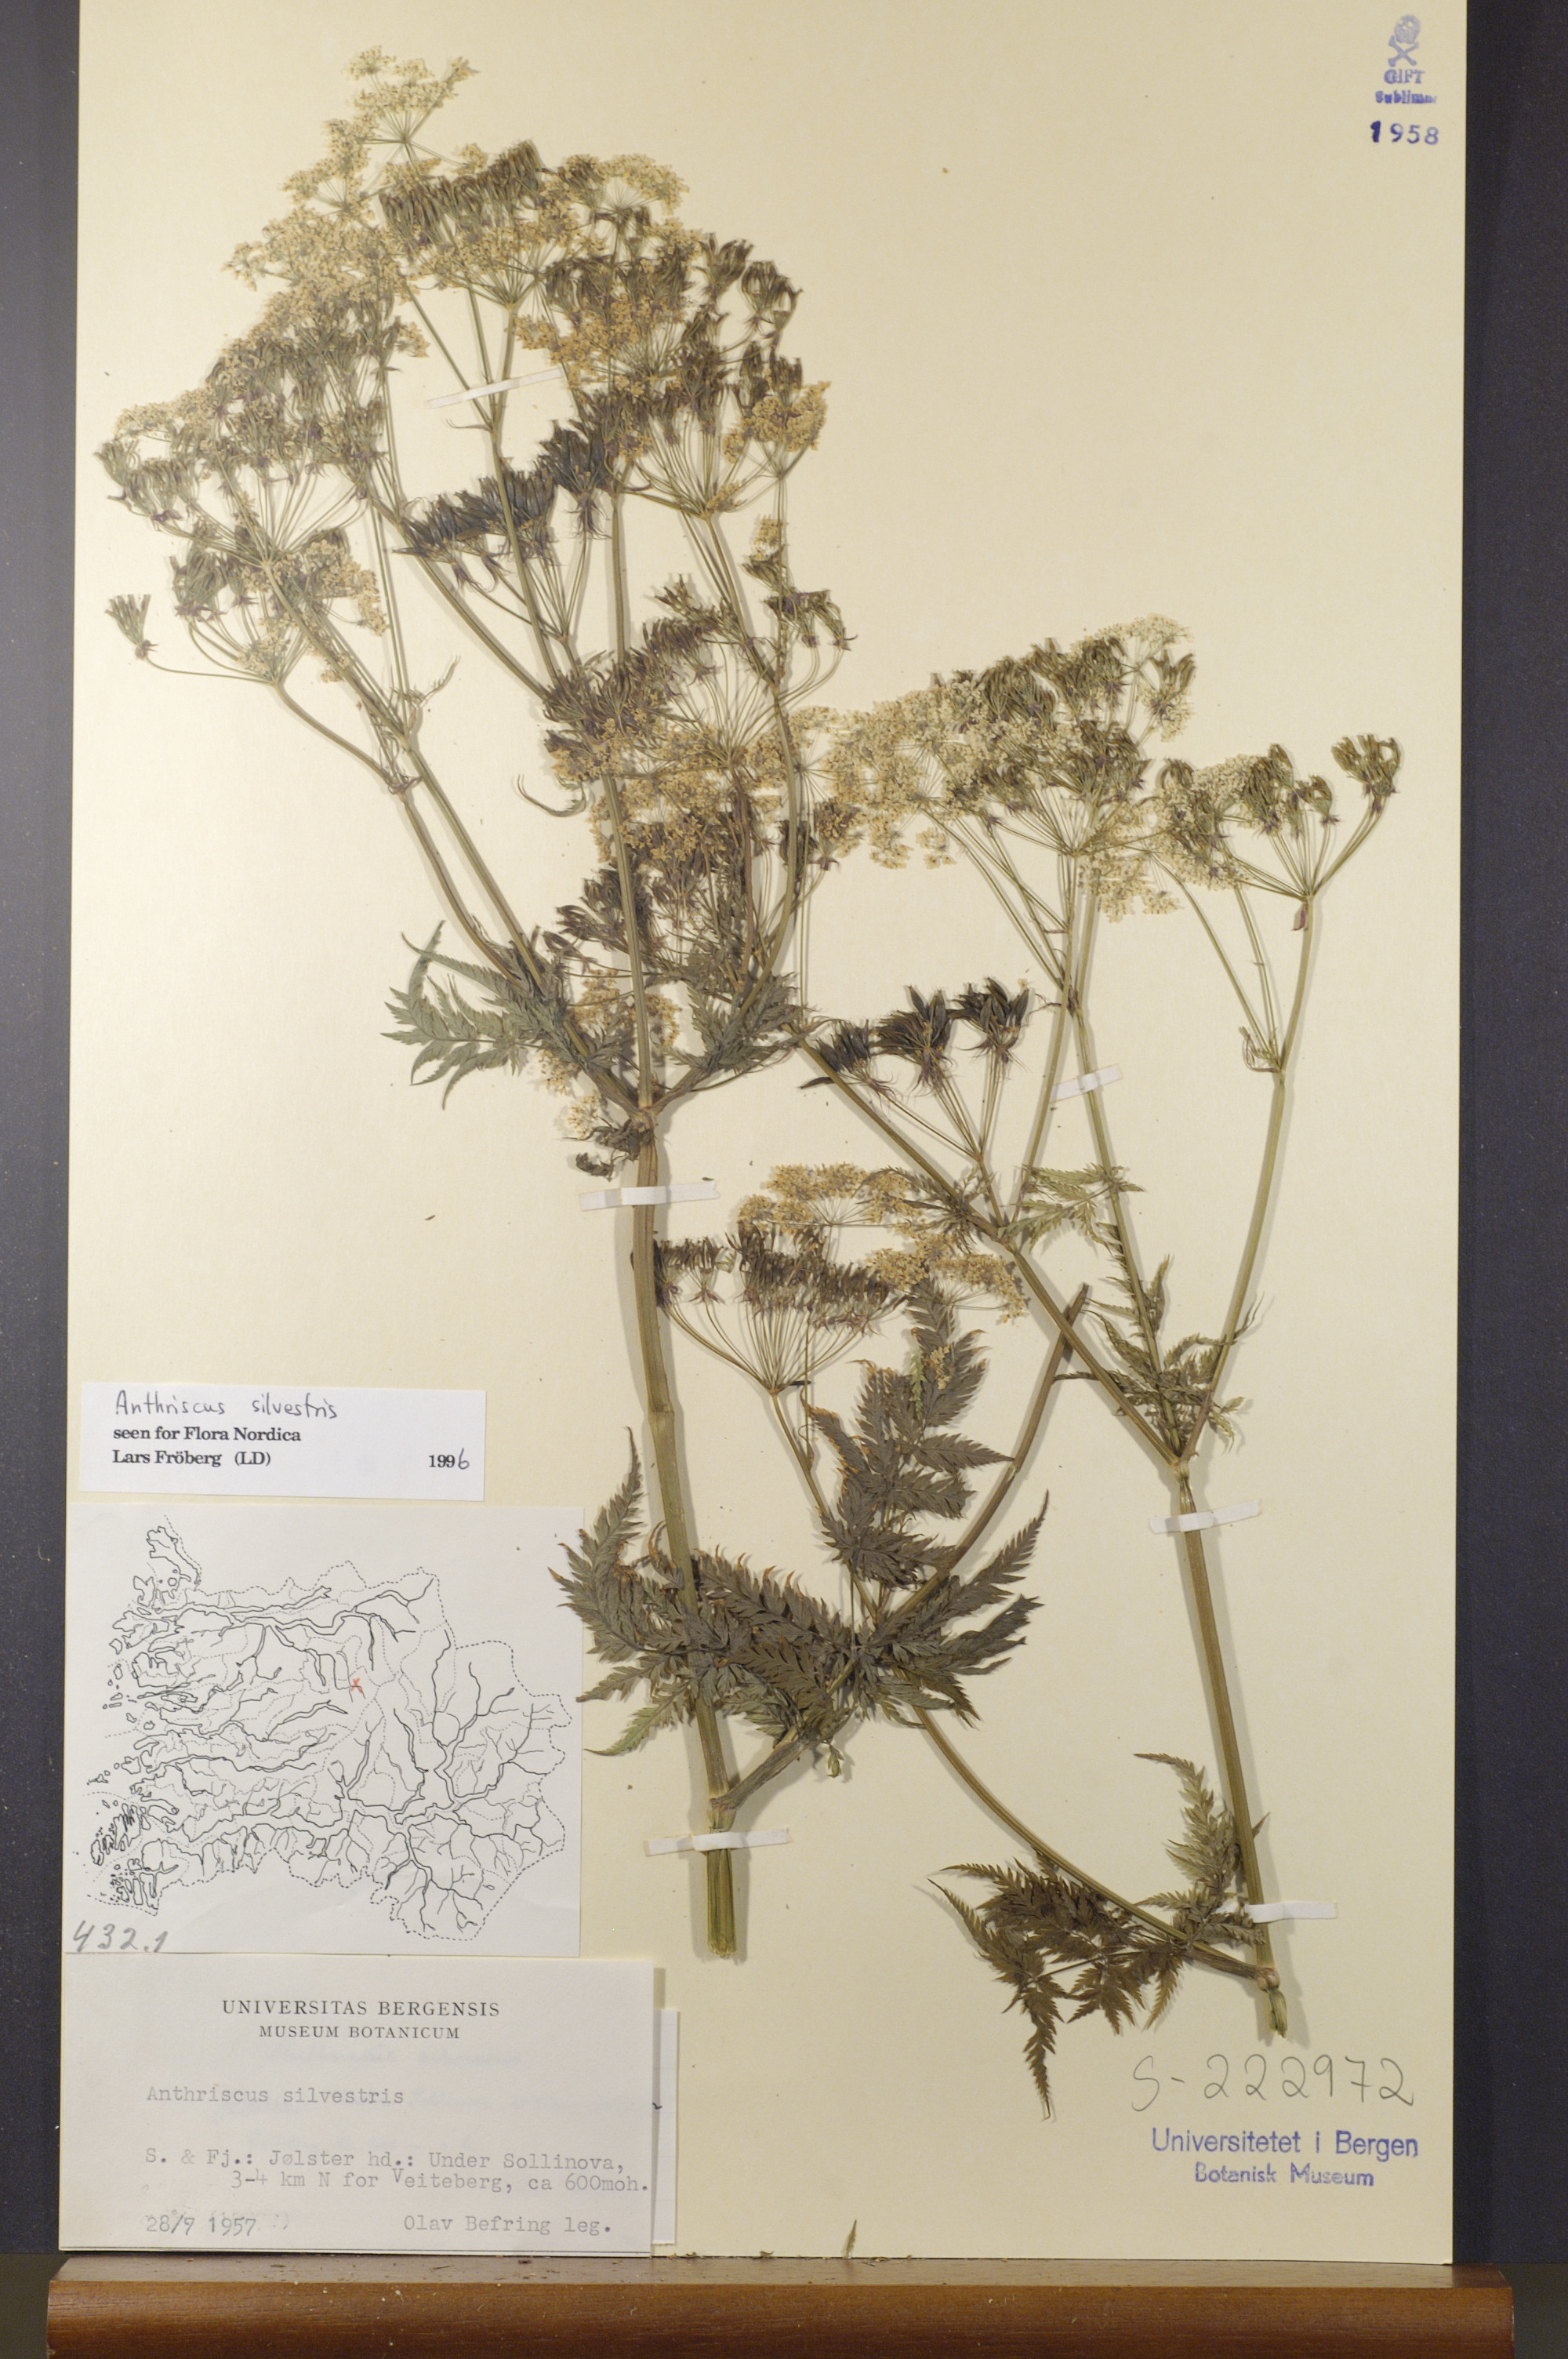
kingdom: Plantae
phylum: Tracheophyta
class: Magnoliopsida
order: Apiales
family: Apiaceae
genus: Anthriscus
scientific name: Anthriscus sylvestris
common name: Cow parsley
